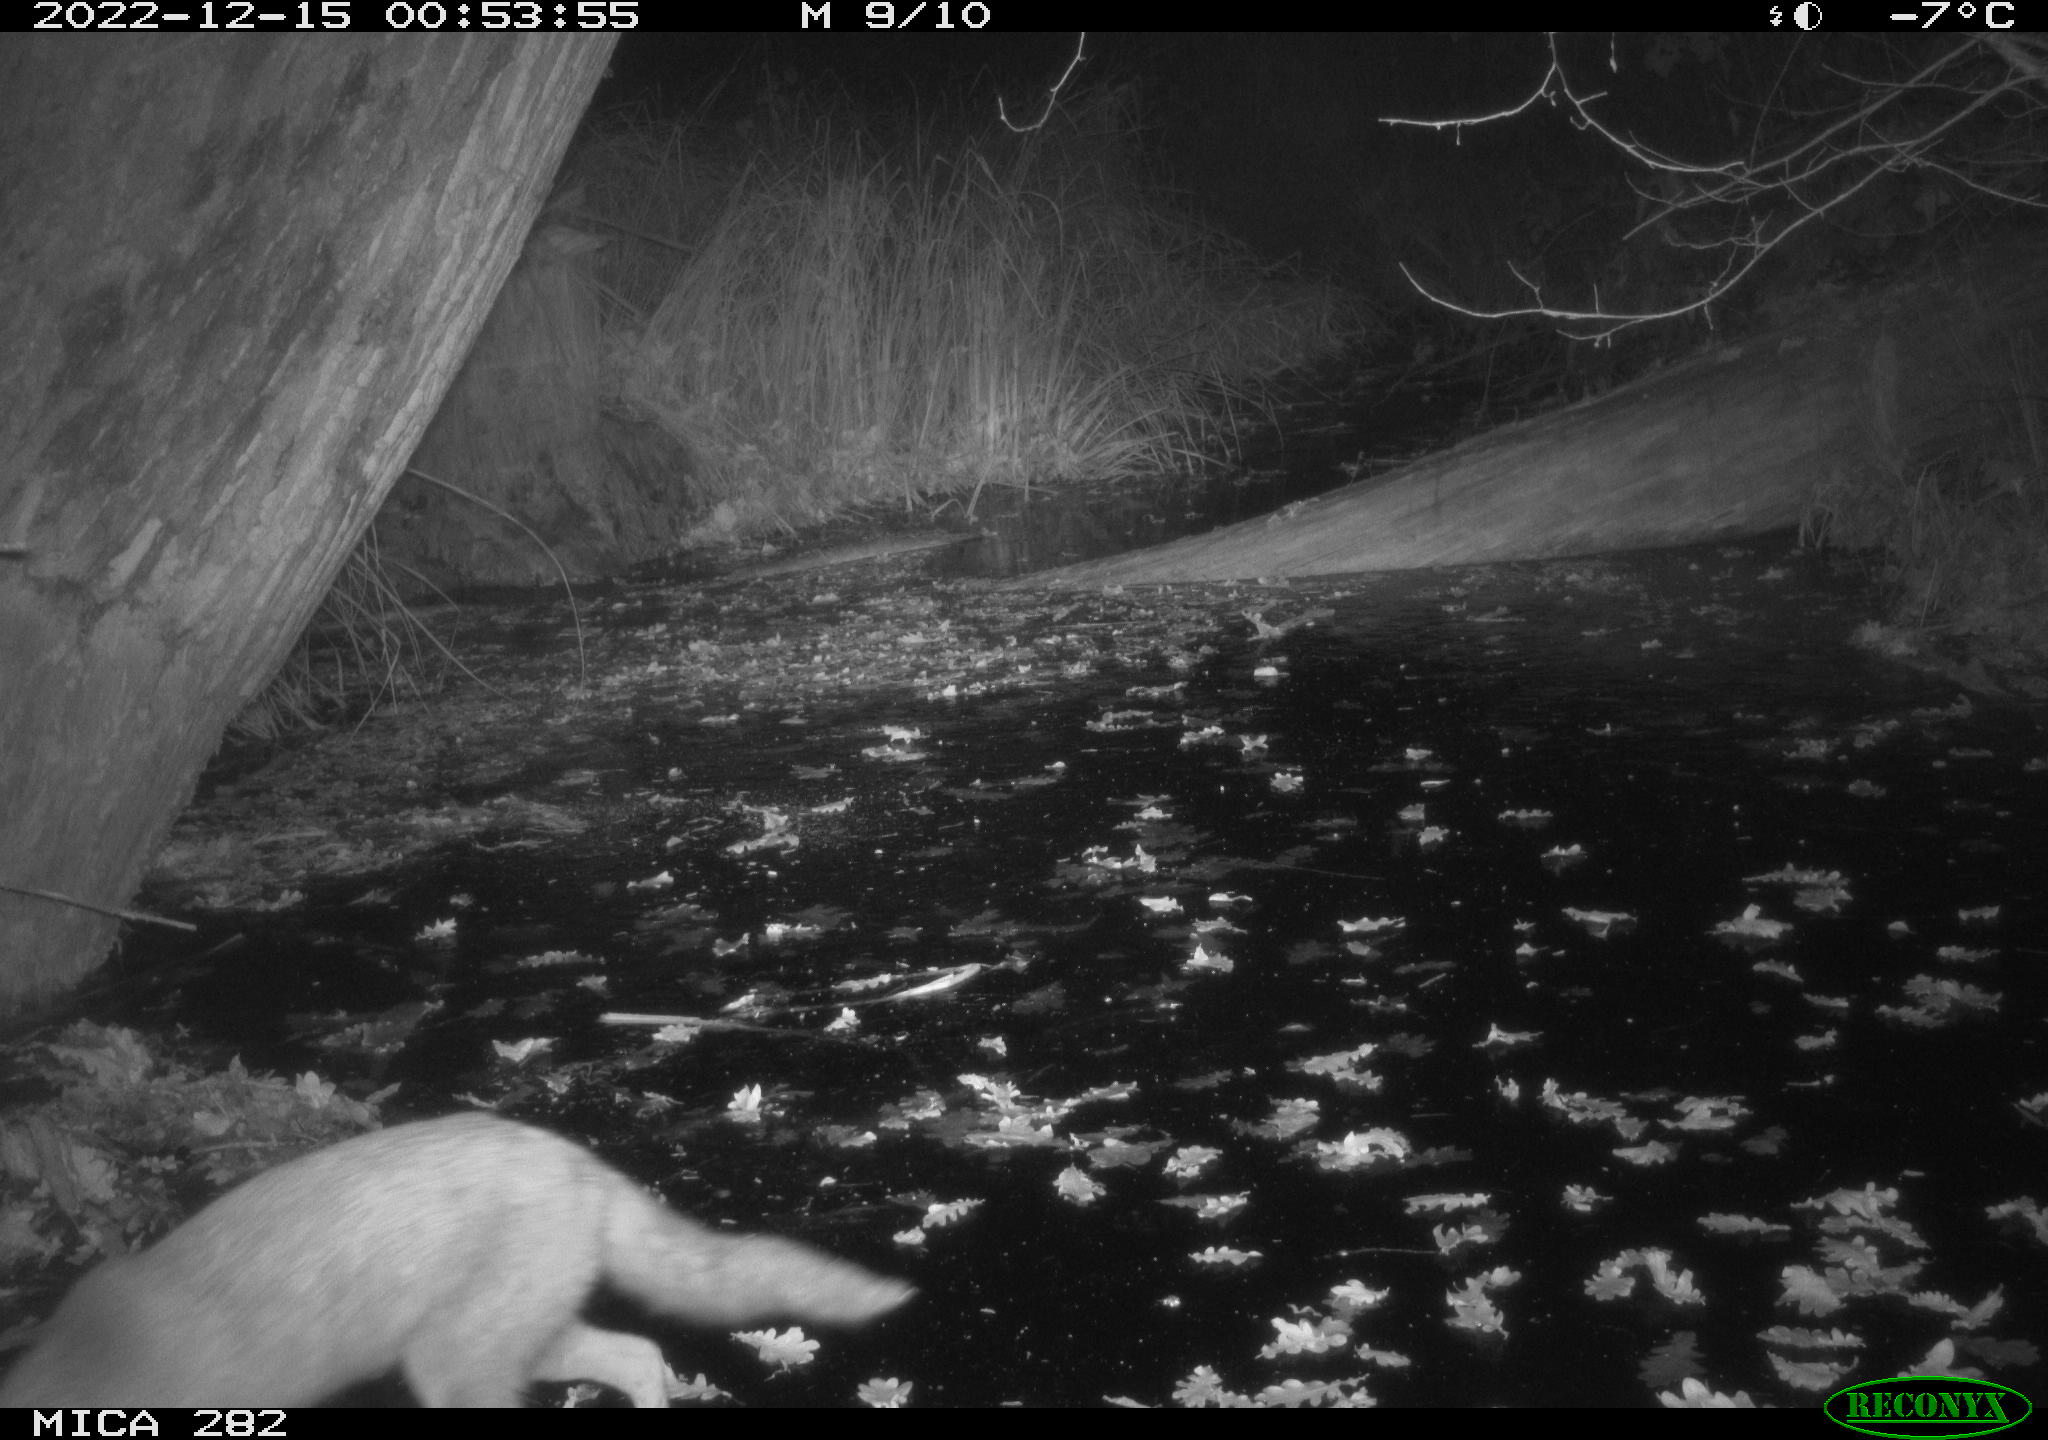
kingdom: Animalia
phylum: Chordata
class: Mammalia
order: Carnivora
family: Canidae
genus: Vulpes
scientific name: Vulpes vulpes
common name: Red fox
